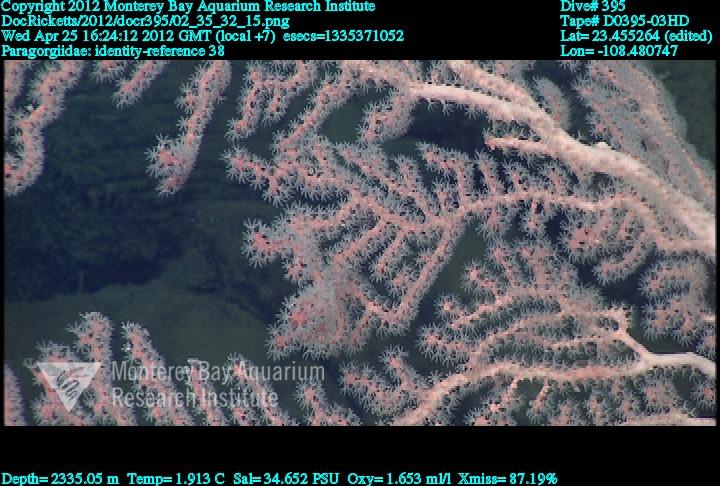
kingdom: Animalia
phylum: Cnidaria
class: Anthozoa
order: Scleralcyonacea
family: Coralliidae
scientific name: Coralliidae
